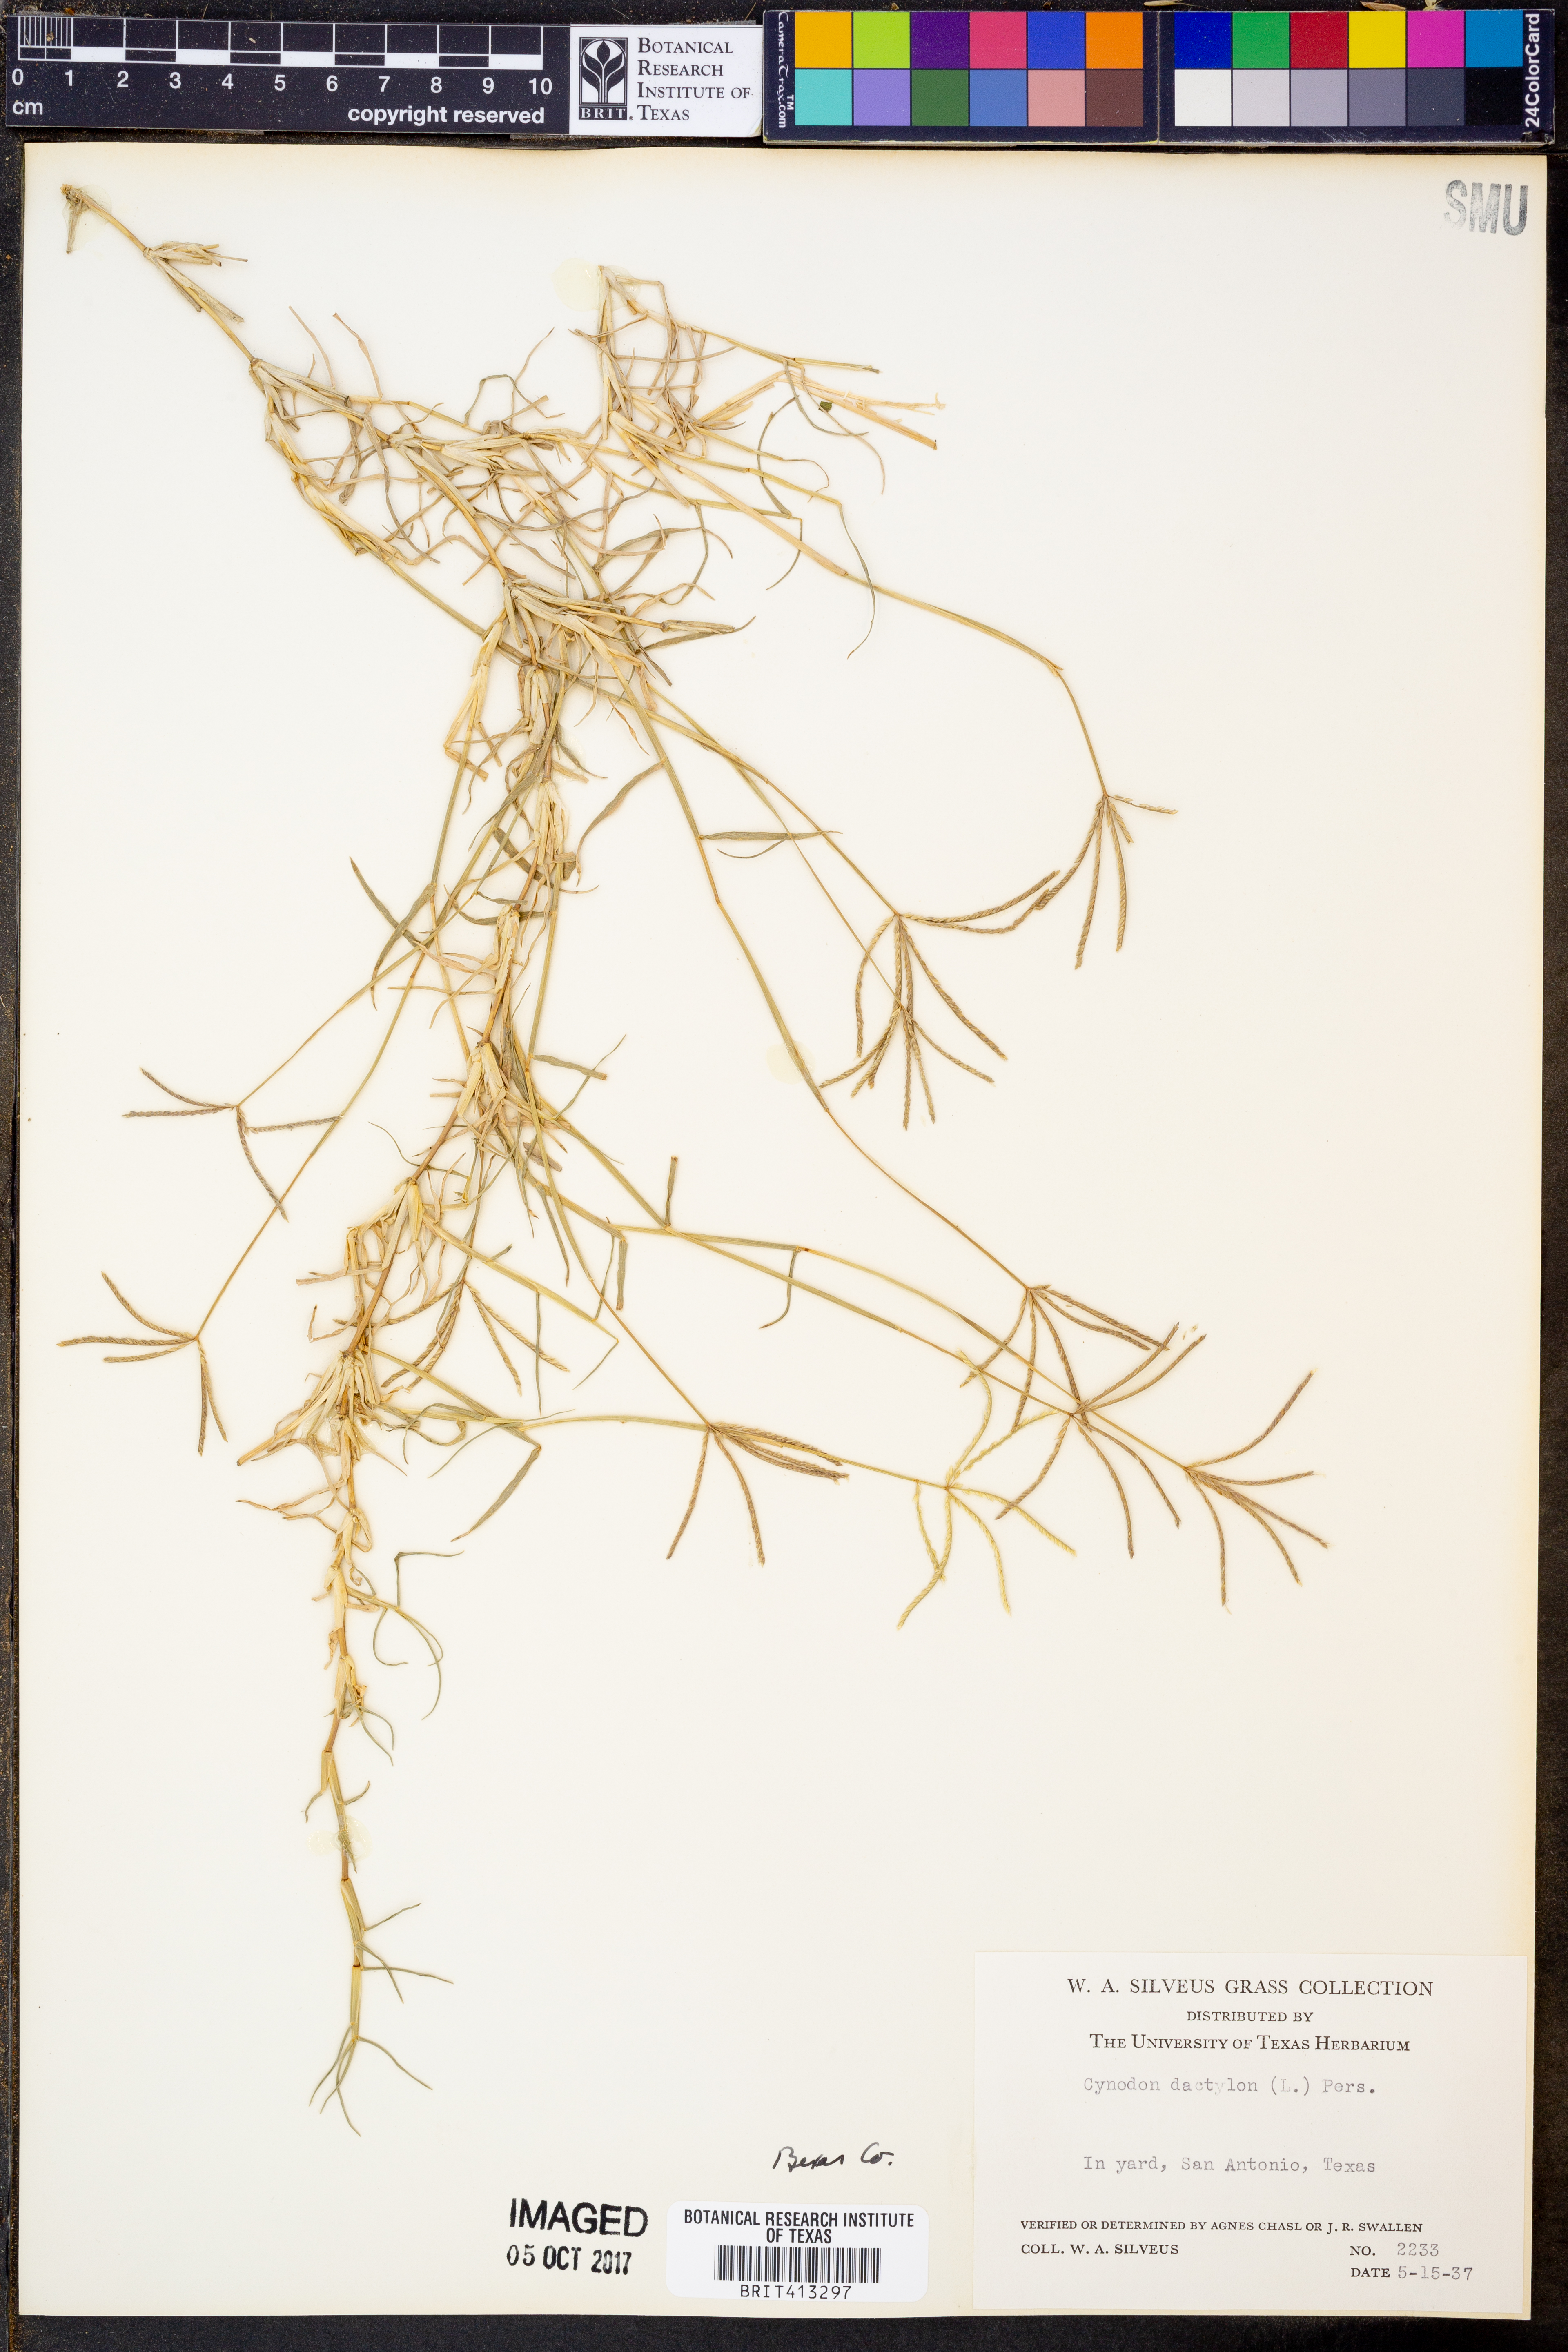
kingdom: Plantae
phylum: Tracheophyta
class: Liliopsida
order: Poales
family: Poaceae
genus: Cynodon
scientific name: Cynodon dactylon
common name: Bermuda grass
